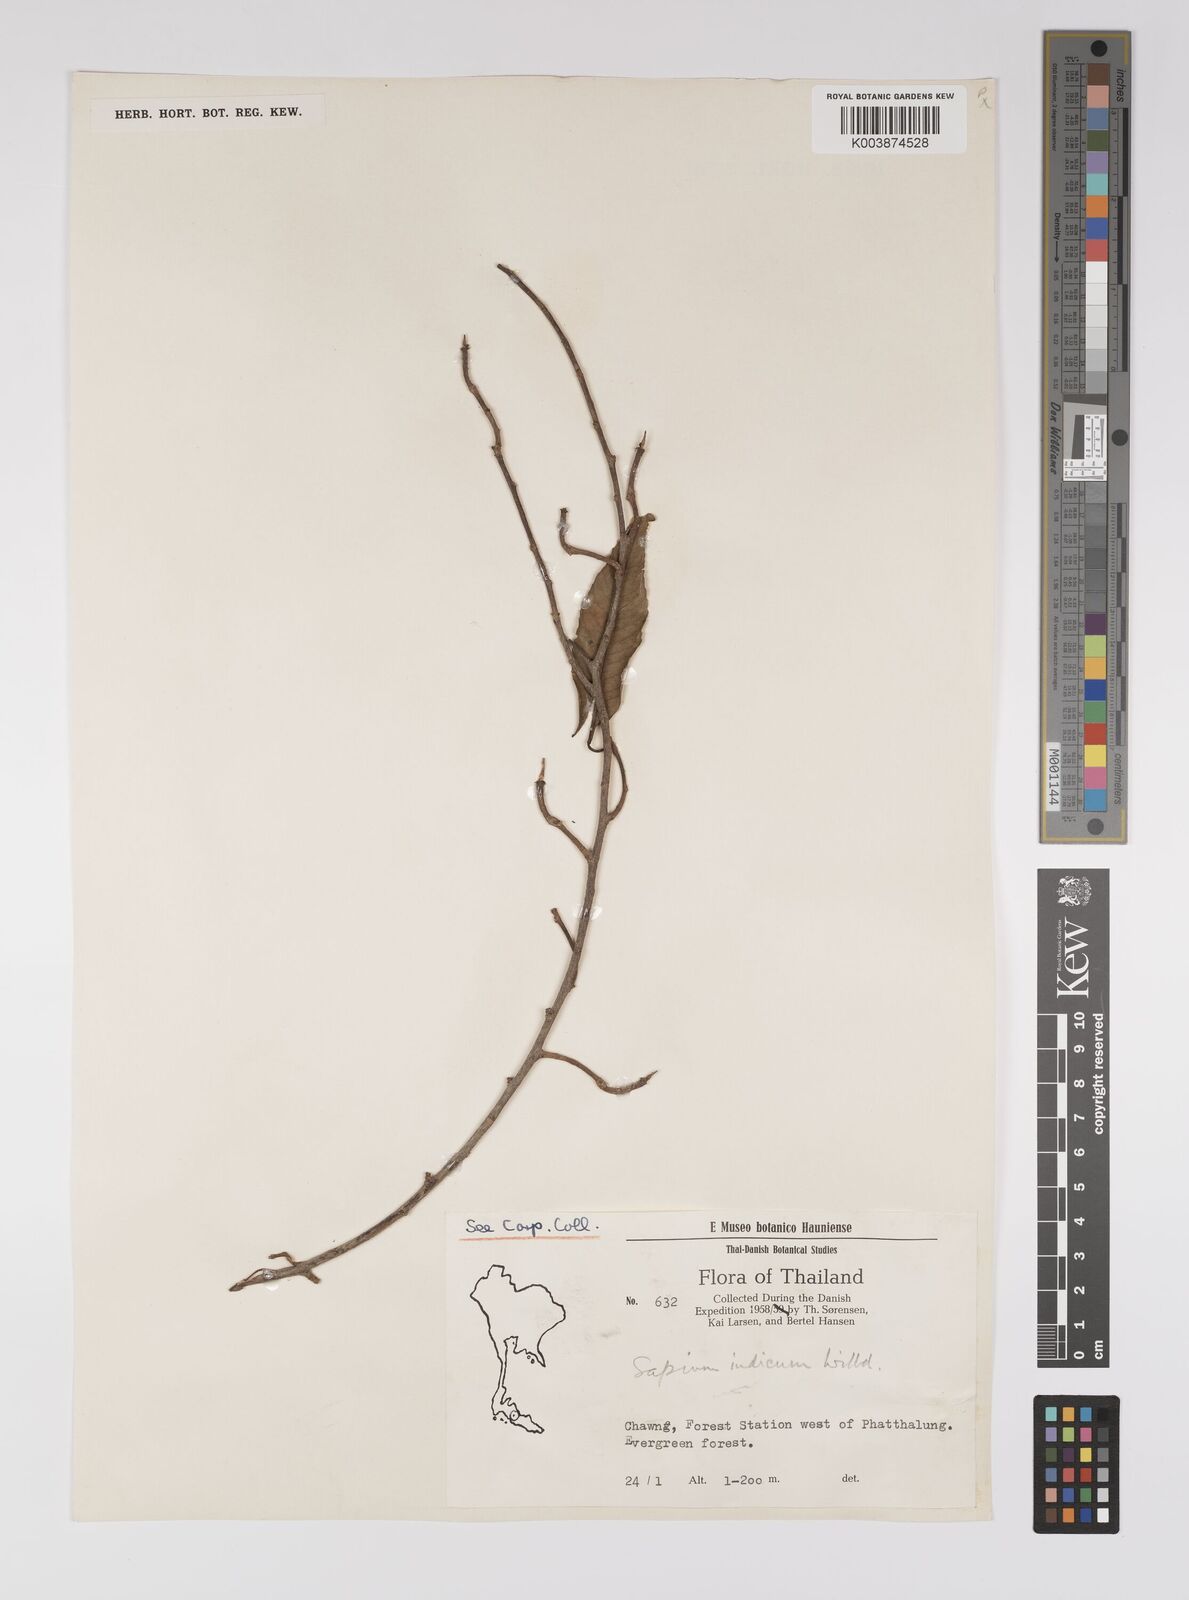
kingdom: Plantae
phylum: Tracheophyta
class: Magnoliopsida
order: Malpighiales
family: Euphorbiaceae
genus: Shirakiopsis
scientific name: Shirakiopsis indica
